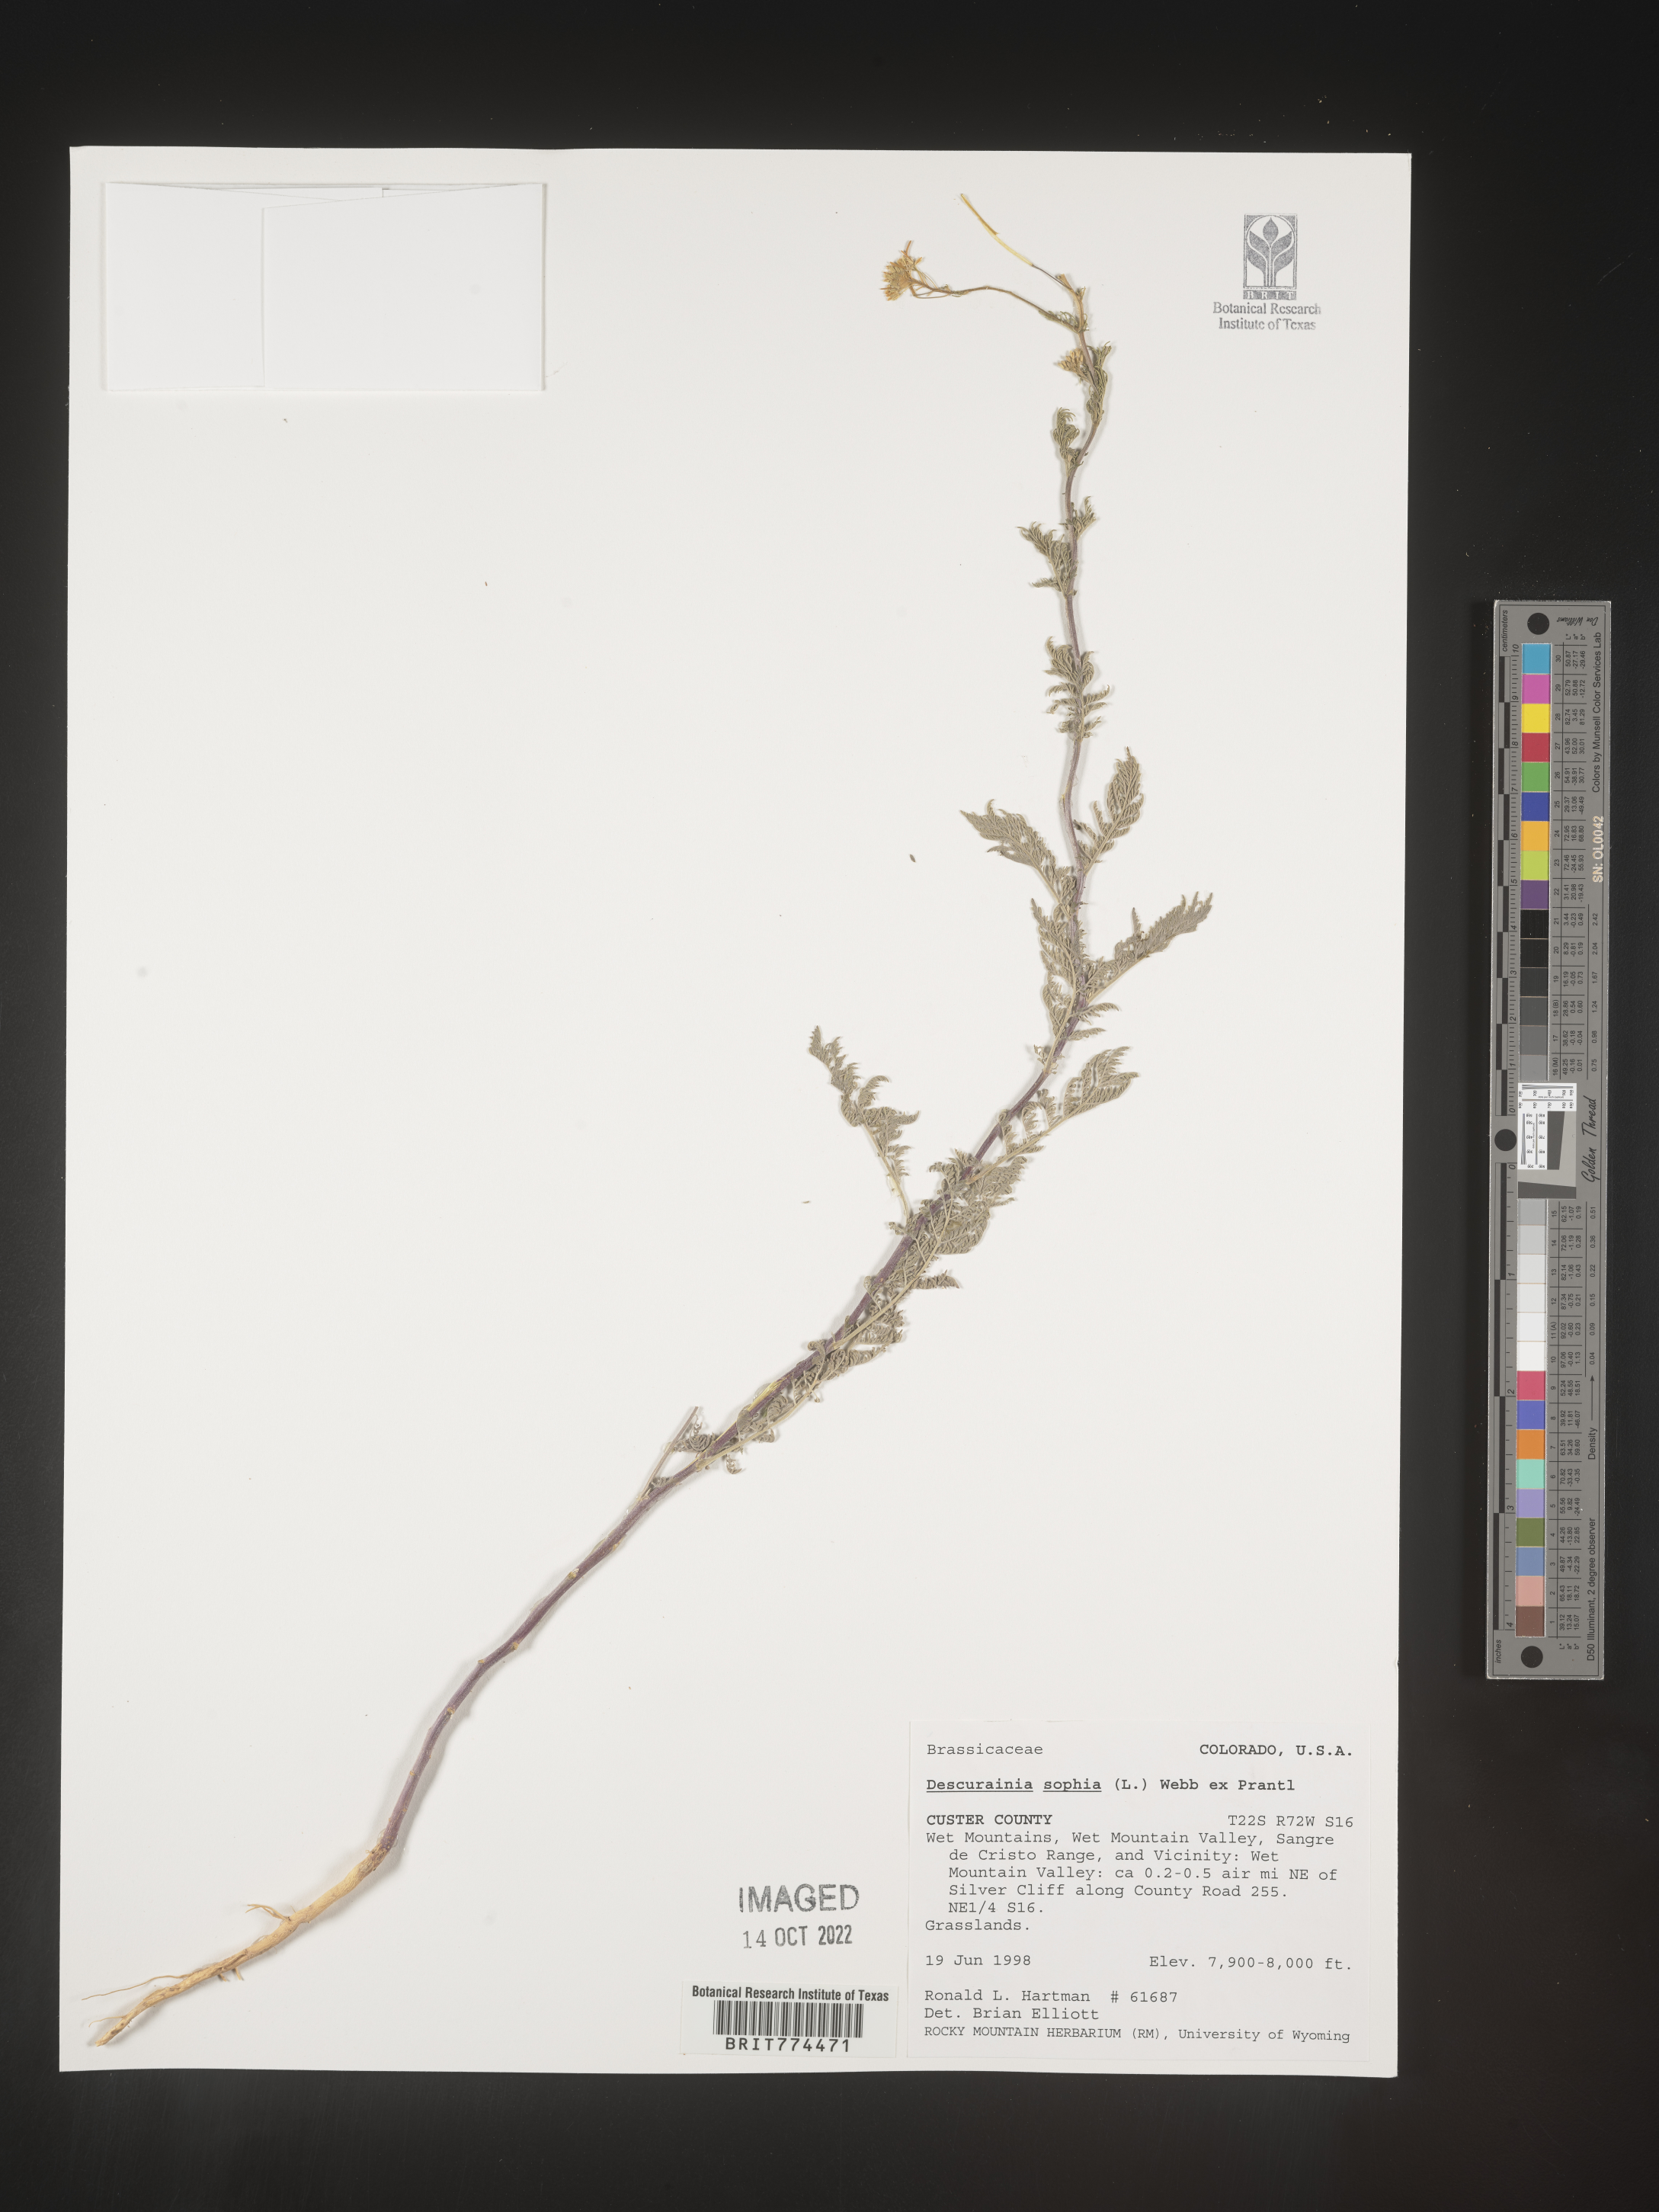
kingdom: Plantae
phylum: Tracheophyta
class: Magnoliopsida
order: Brassicales
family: Brassicaceae
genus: Descurainia
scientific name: Descurainia sophia
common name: Flixweed
